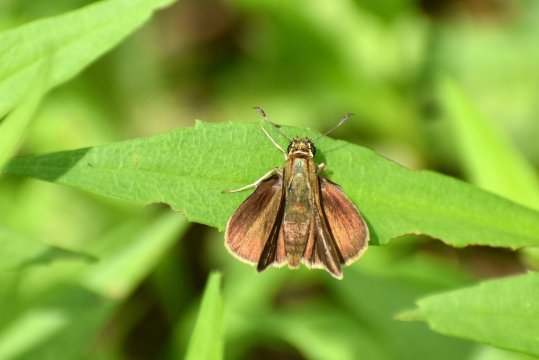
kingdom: Animalia
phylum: Arthropoda
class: Insecta
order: Lepidoptera
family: Hesperiidae
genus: Polites
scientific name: Polites egeremet
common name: Northern Broken-Dash
